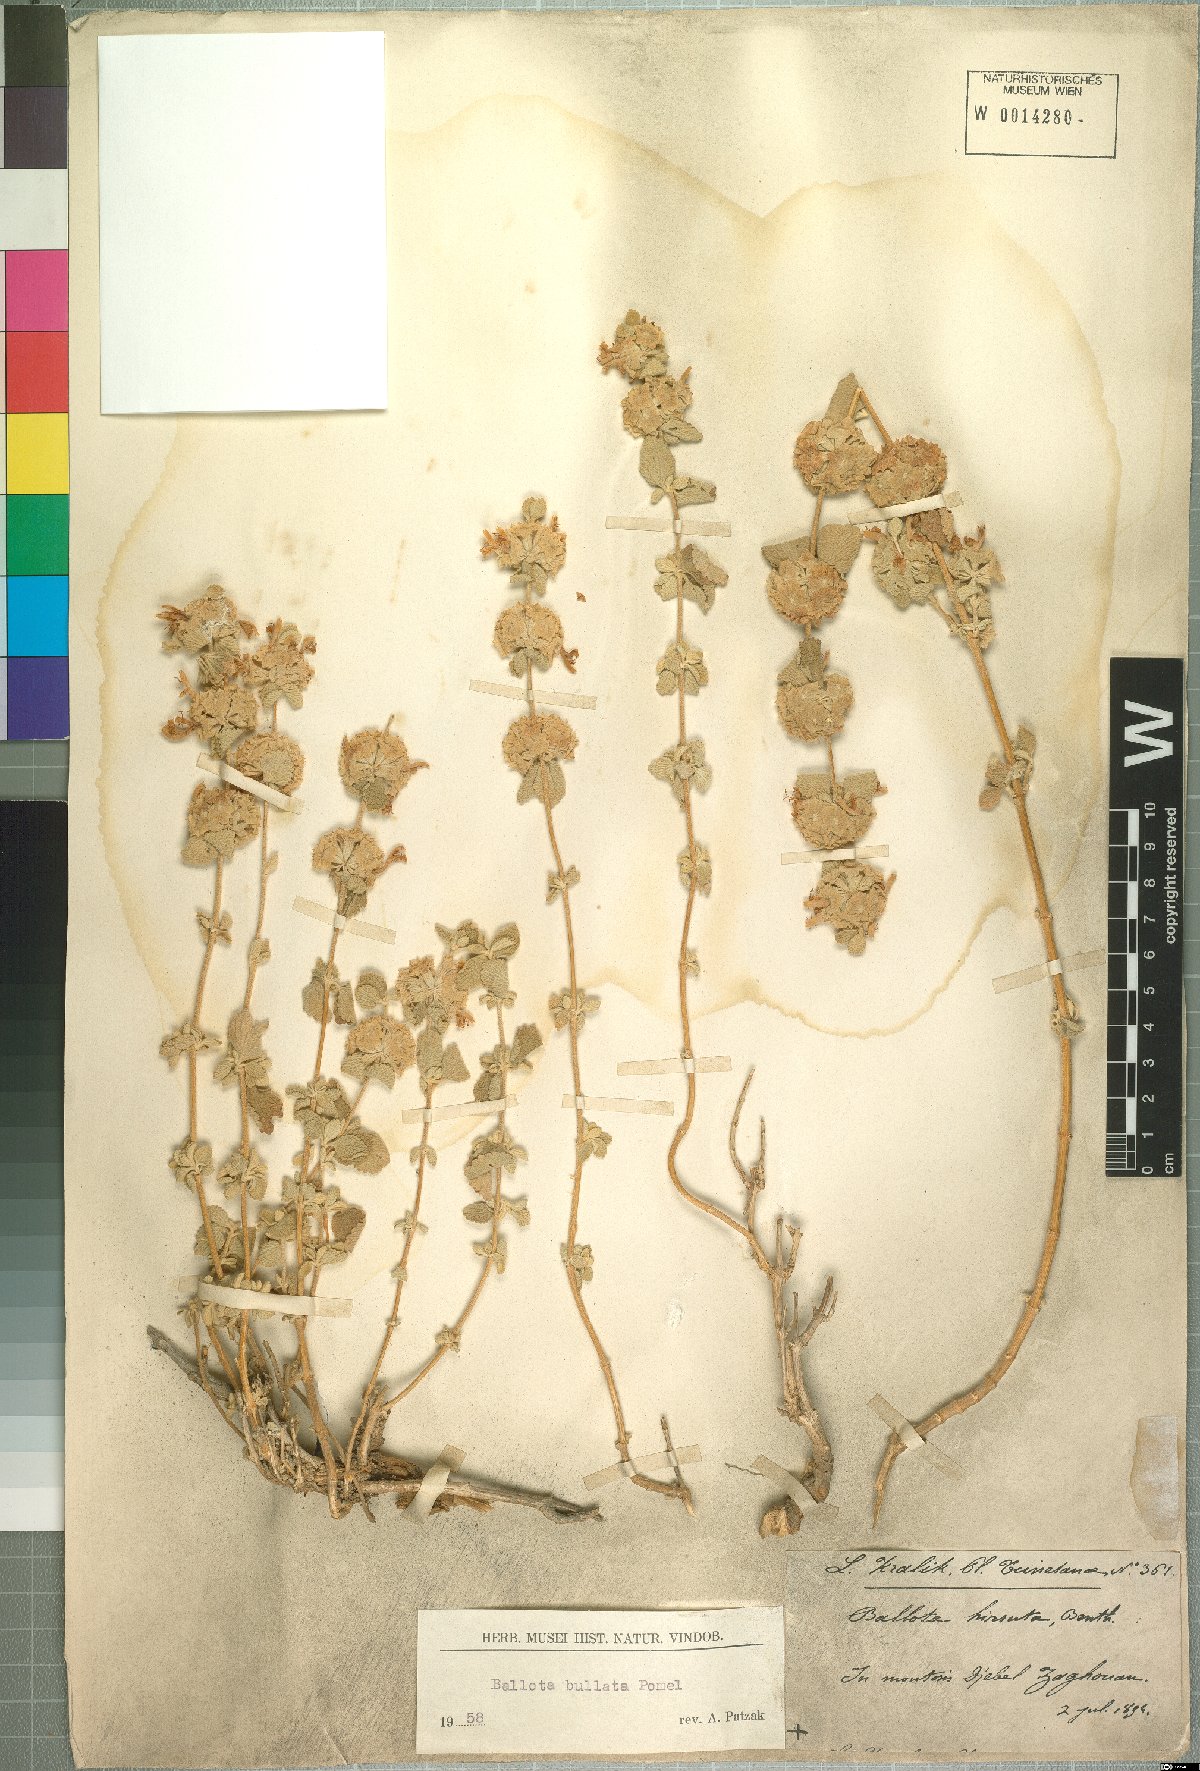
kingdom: Plantae
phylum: Tracheophyta
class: Magnoliopsida
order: Lamiales
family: Lamiaceae
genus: Pseudodictamnus
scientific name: Pseudodictamnus bullatus
